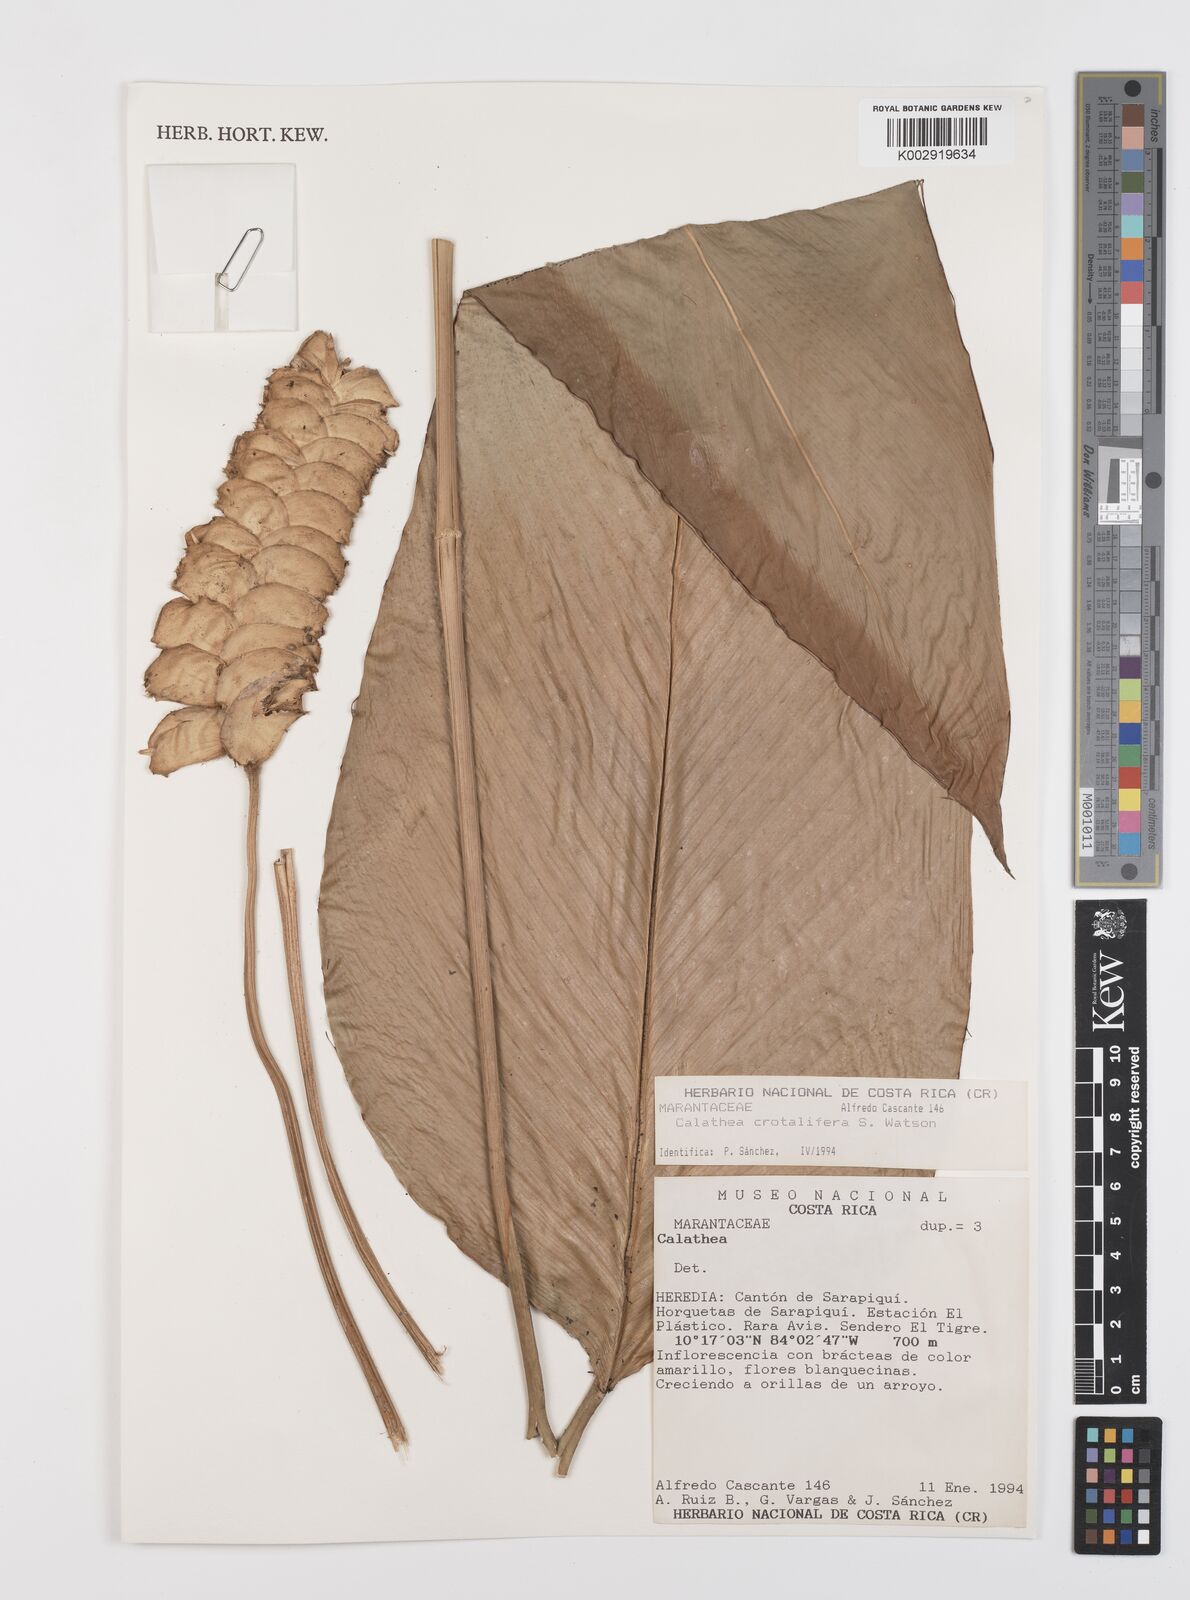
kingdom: Plantae
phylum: Tracheophyta
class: Liliopsida
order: Zingiberales
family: Marantaceae
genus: Calathea
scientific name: Calathea crotalifera
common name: Rattlesnake plant
